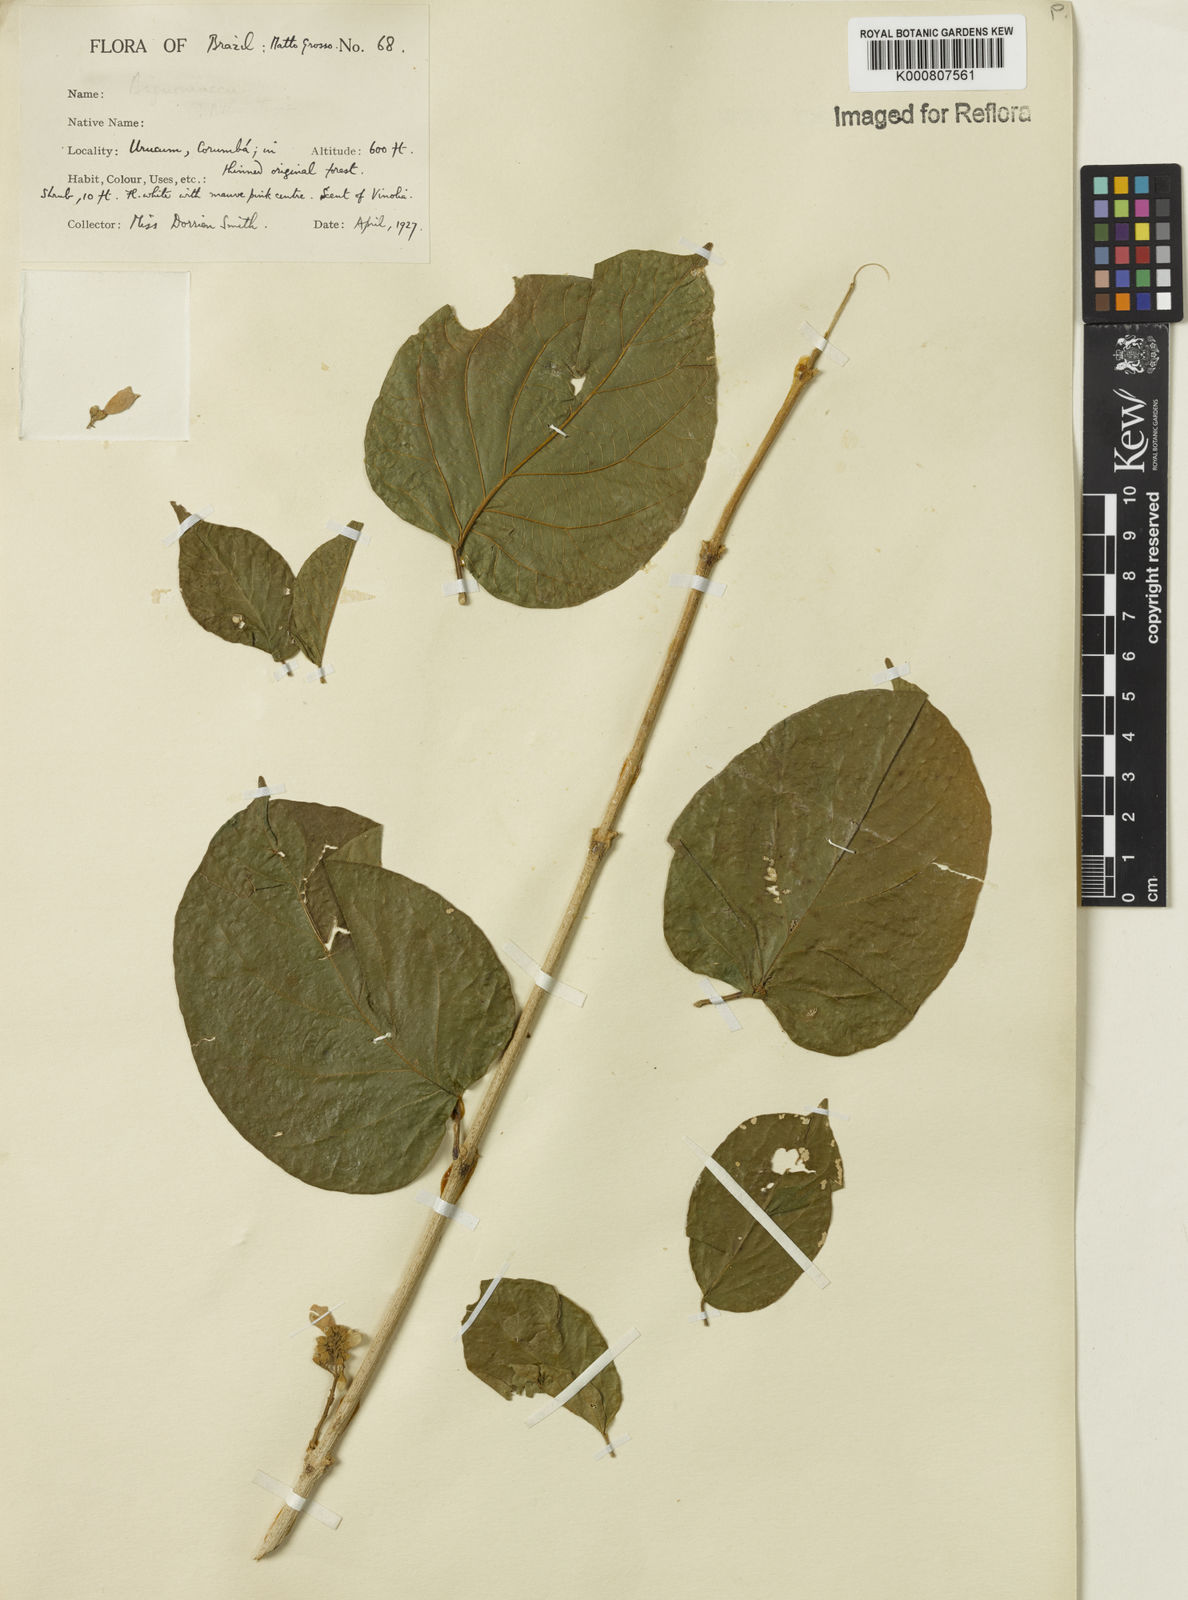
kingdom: Plantae
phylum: Tracheophyta
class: Magnoliopsida
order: Lamiales
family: Bignoniaceae
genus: Fridericia
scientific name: Fridericia fagoides
